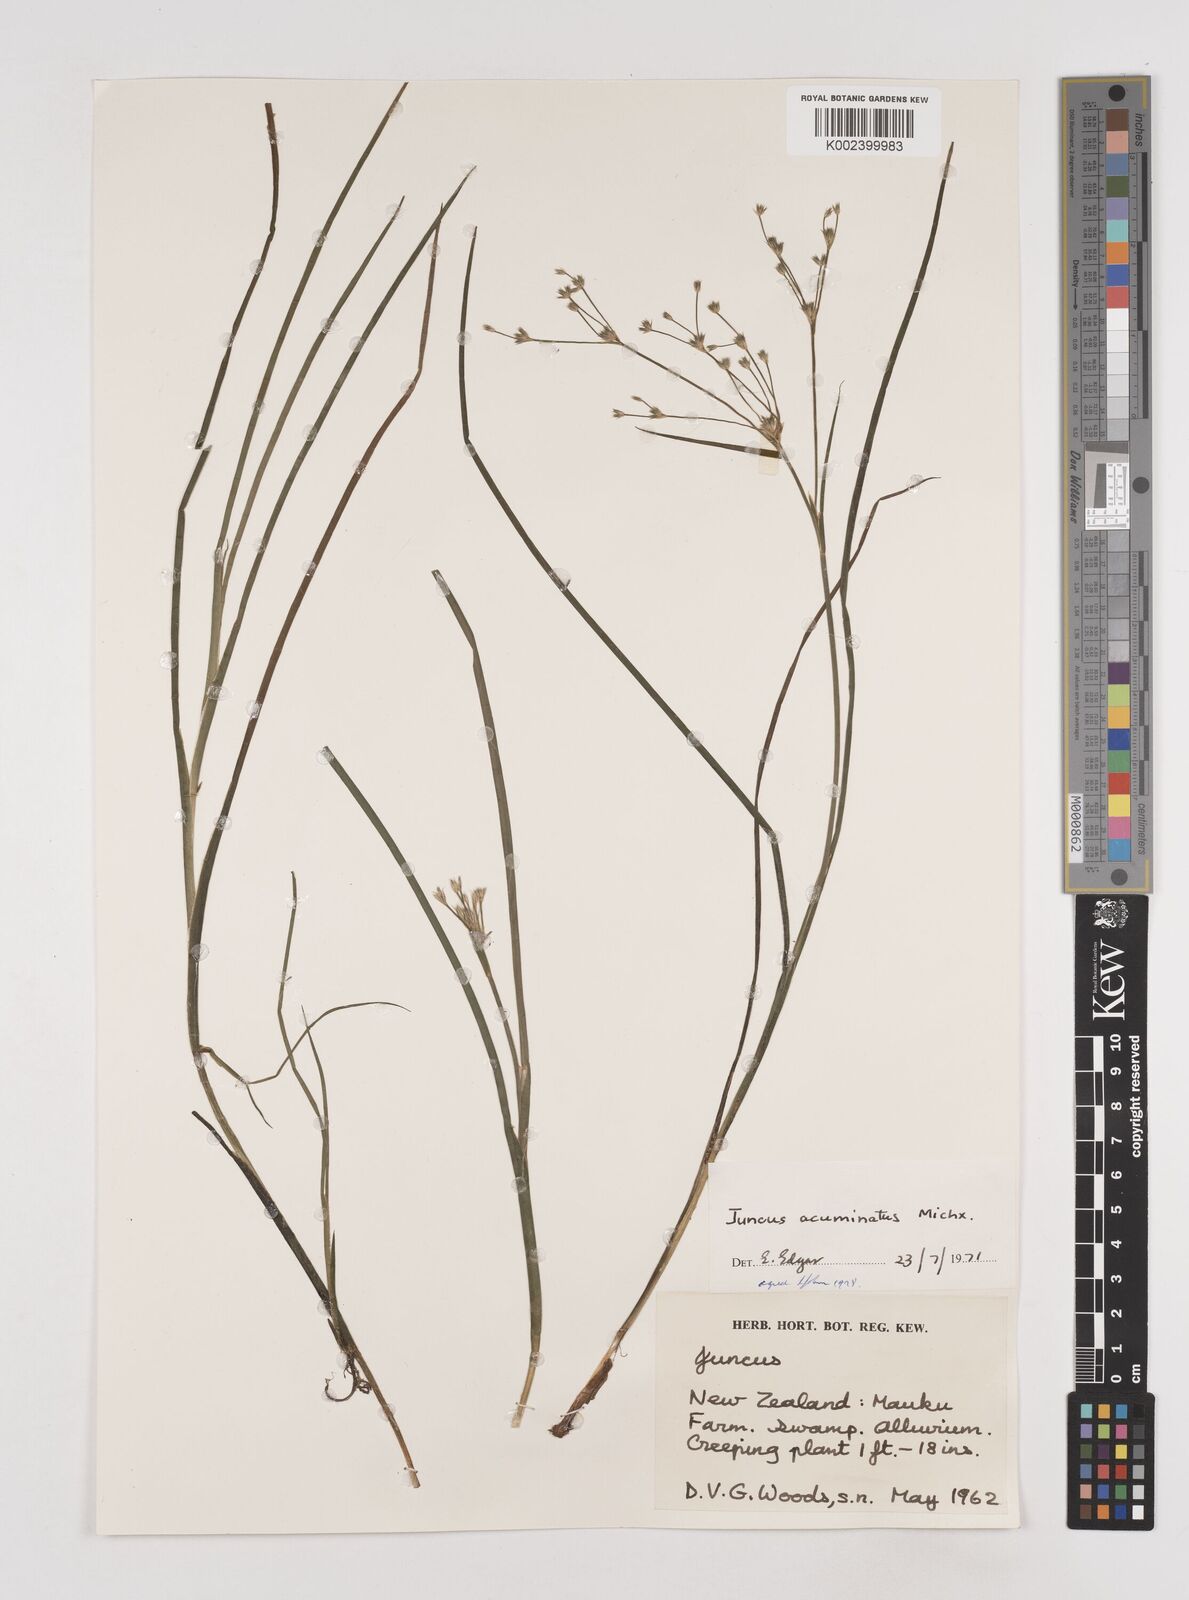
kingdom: Plantae
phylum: Tracheophyta
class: Liliopsida
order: Poales
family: Juncaceae
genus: Juncus
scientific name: Juncus acuminatus
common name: Knotty-leaved rush
